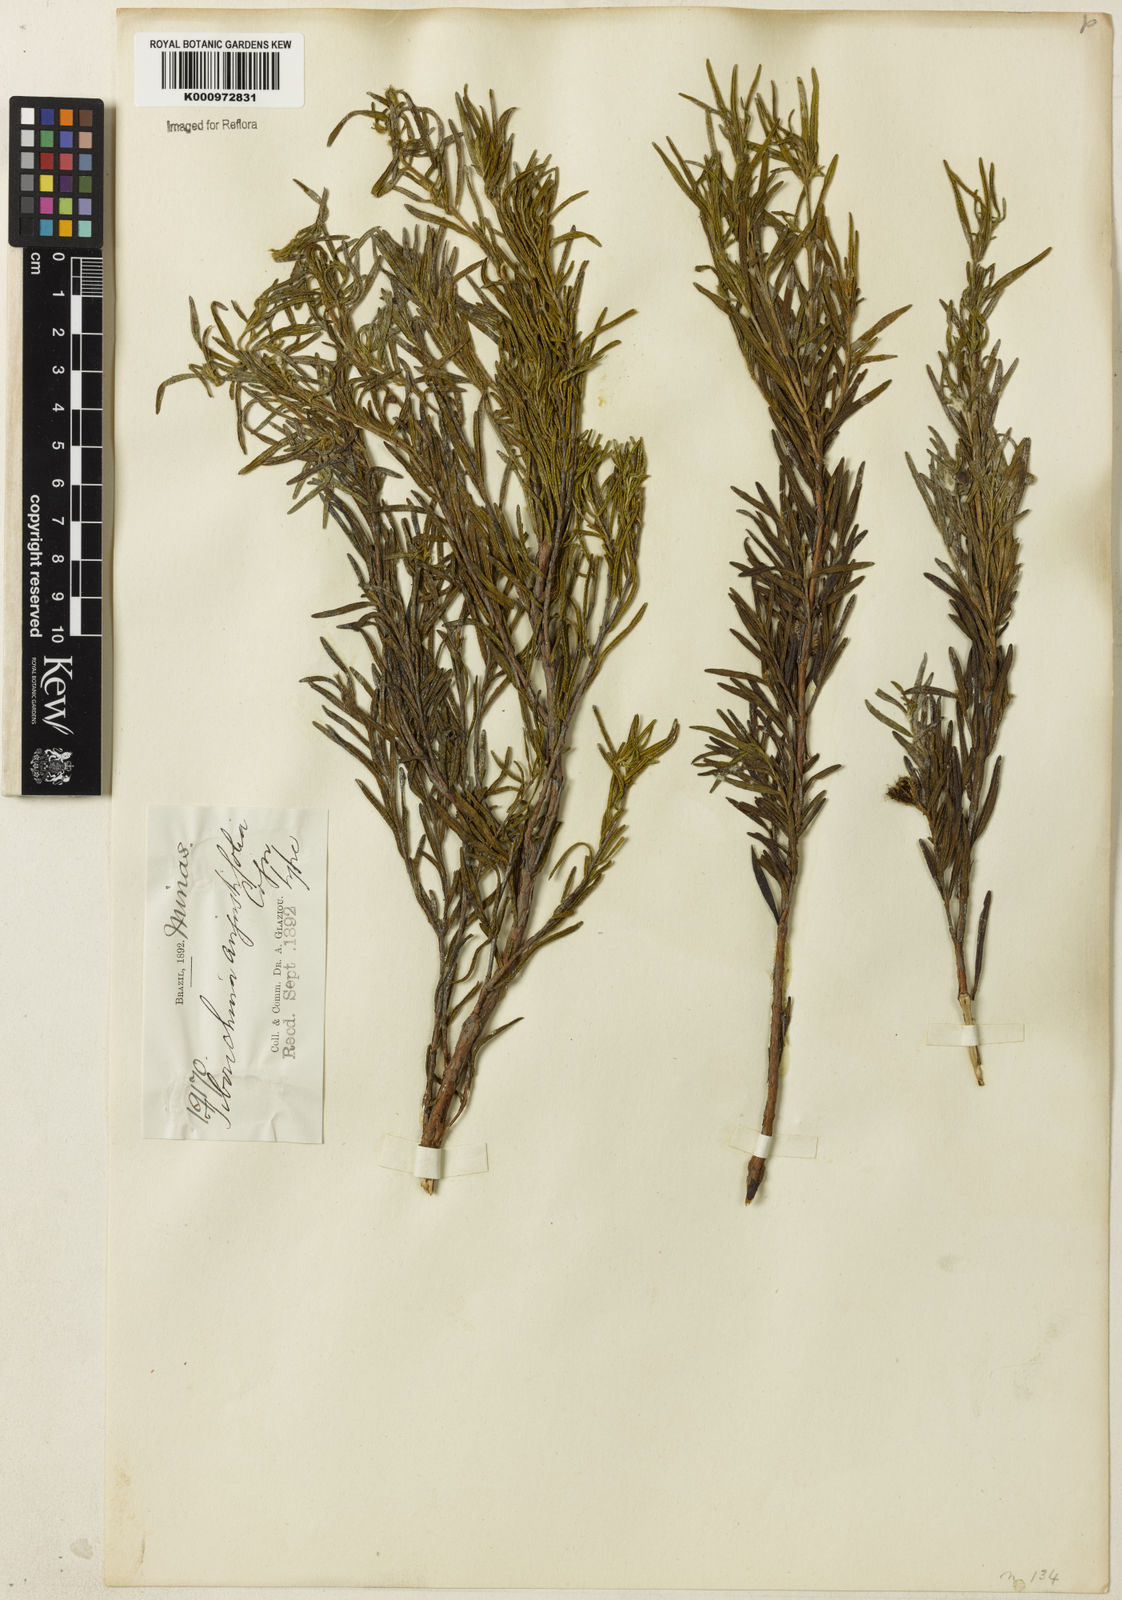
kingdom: Plantae
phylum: Tracheophyta
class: Magnoliopsida
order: Myrtales
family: Melastomataceae
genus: Pleroma
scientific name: Pleroma angustifolium
